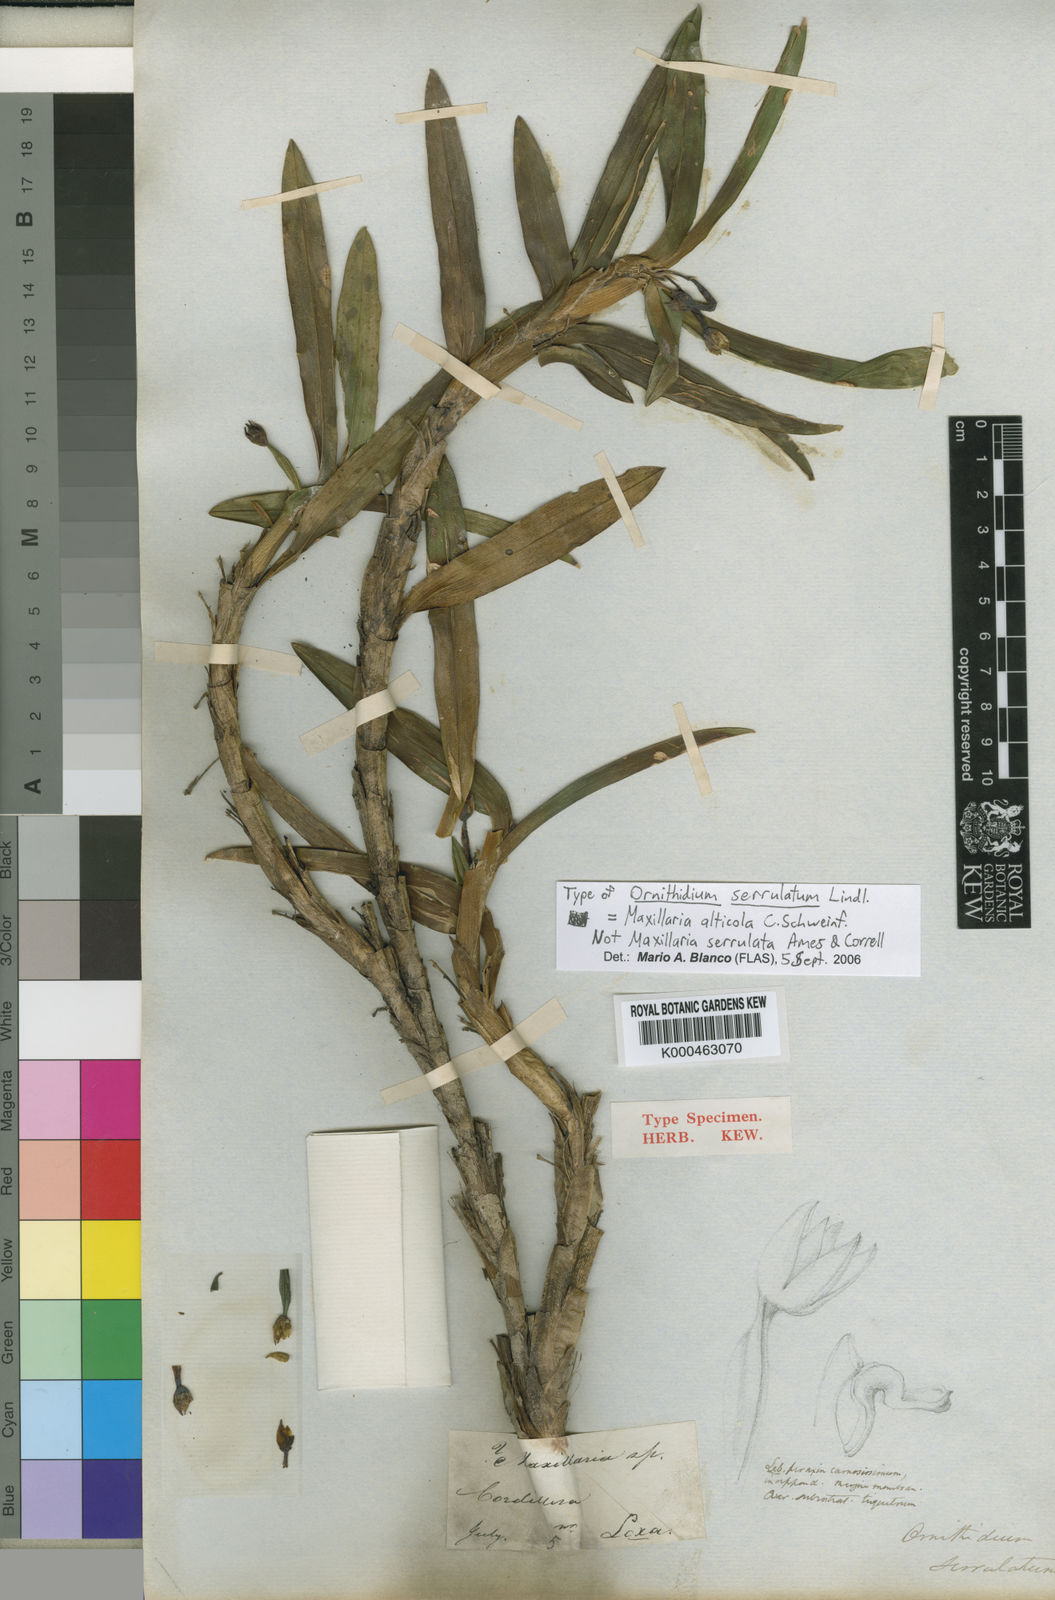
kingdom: Plantae
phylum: Tracheophyta
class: Liliopsida
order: Asparagales
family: Orchidaceae
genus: Maxillaria
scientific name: Maxillaria alticola
